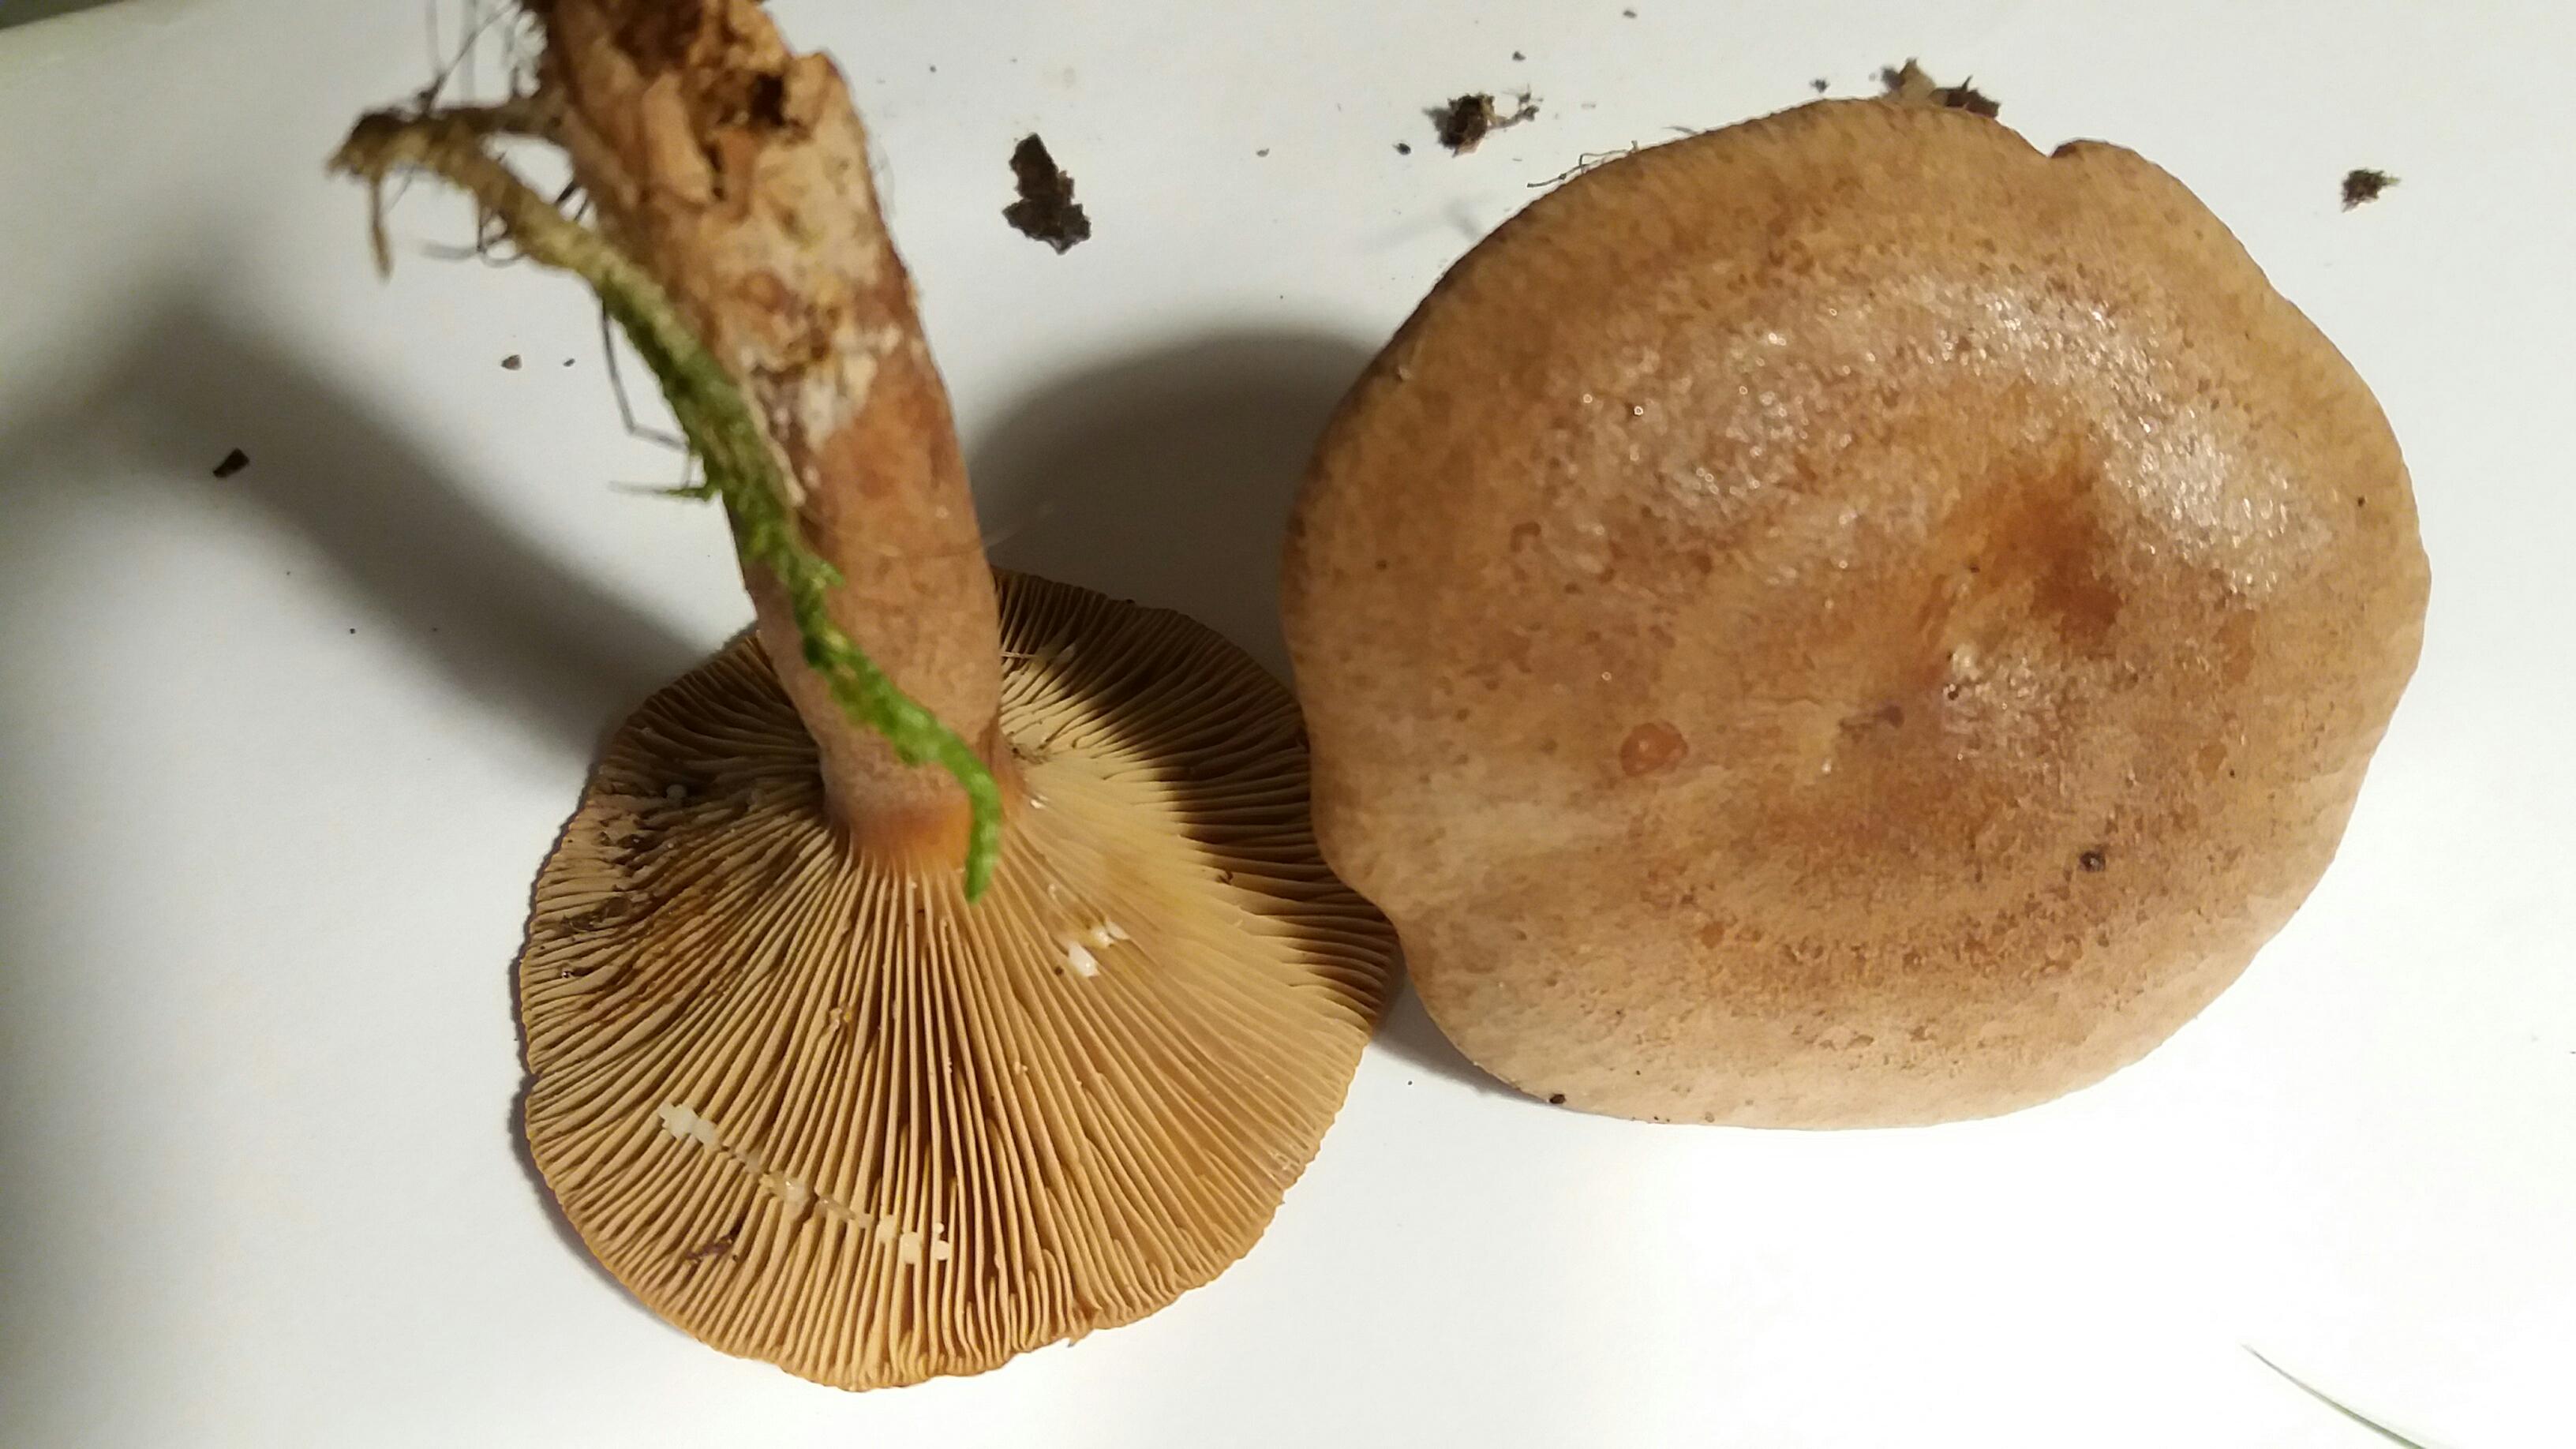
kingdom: Fungi
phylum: Basidiomycota
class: Agaricomycetes
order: Russulales
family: Russulaceae
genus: Lactarius
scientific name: Lactarius quietus
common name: ege-mælkehat
